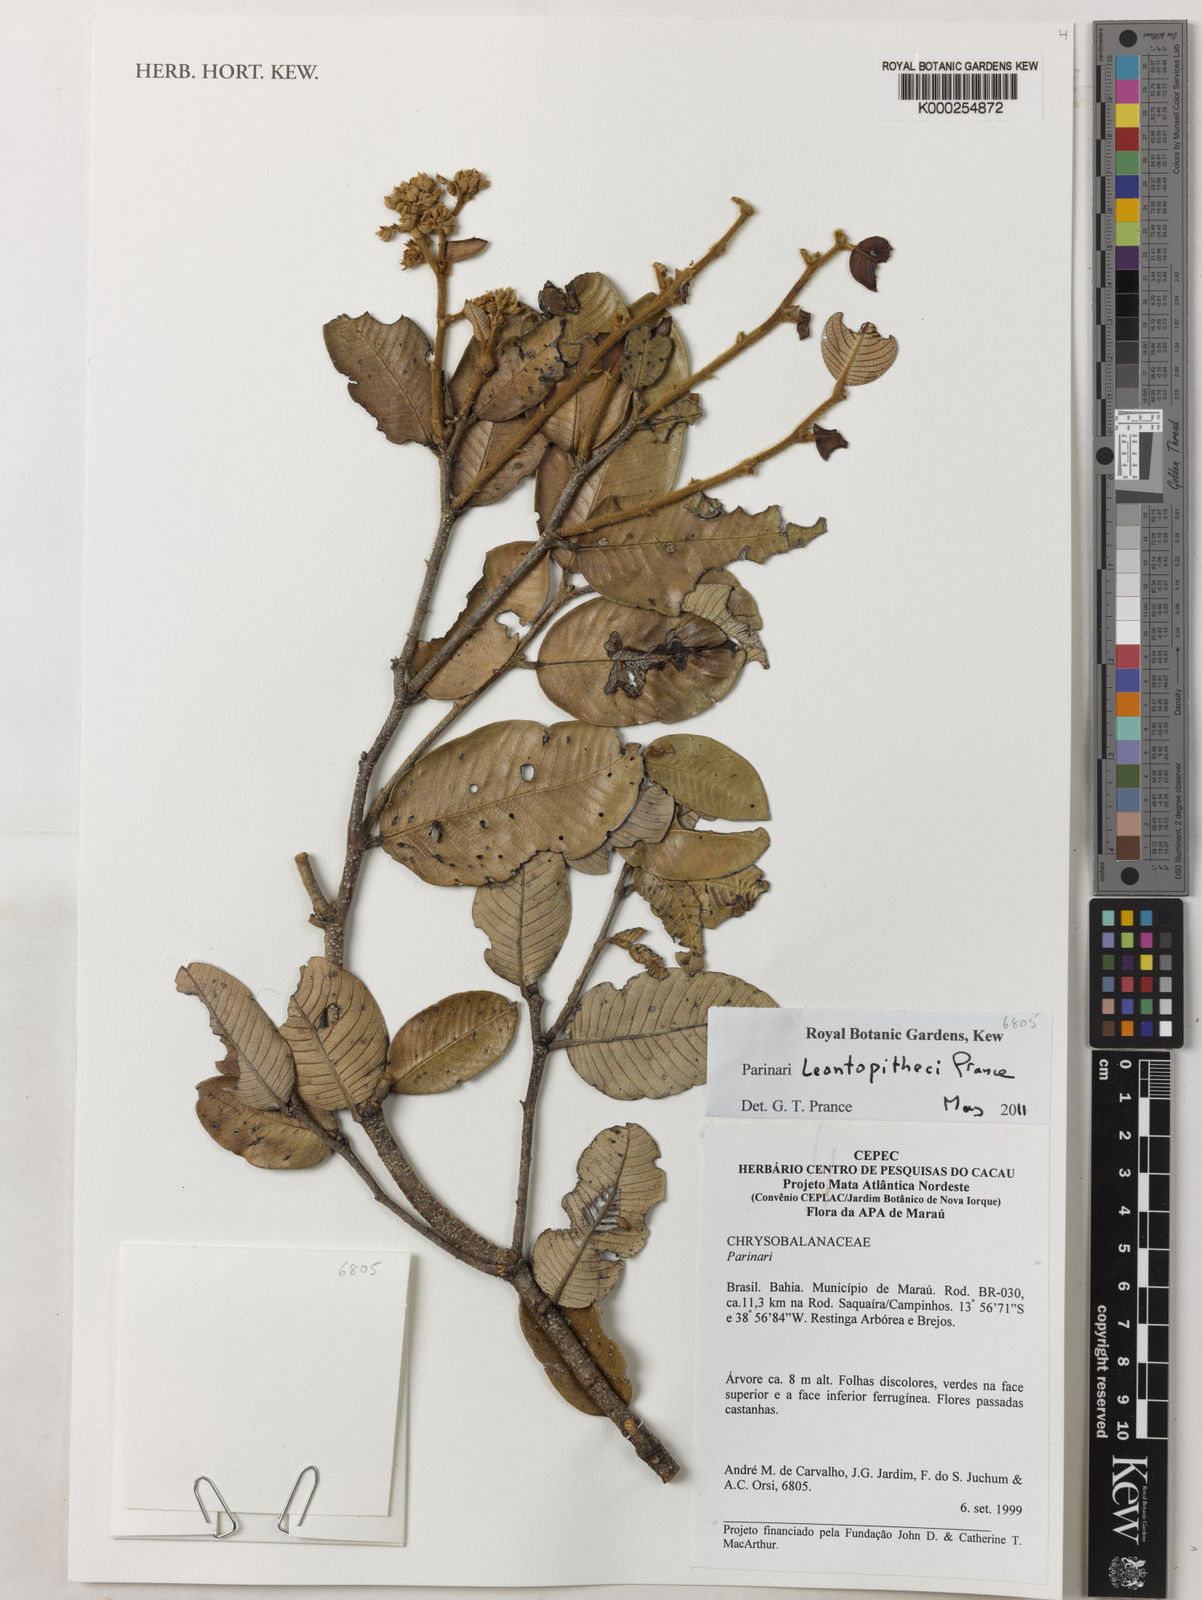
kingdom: Plantae
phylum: Tracheophyta
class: Magnoliopsida
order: Malpighiales
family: Chrysobalanaceae
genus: Parinari
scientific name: Parinari leontopitheci
